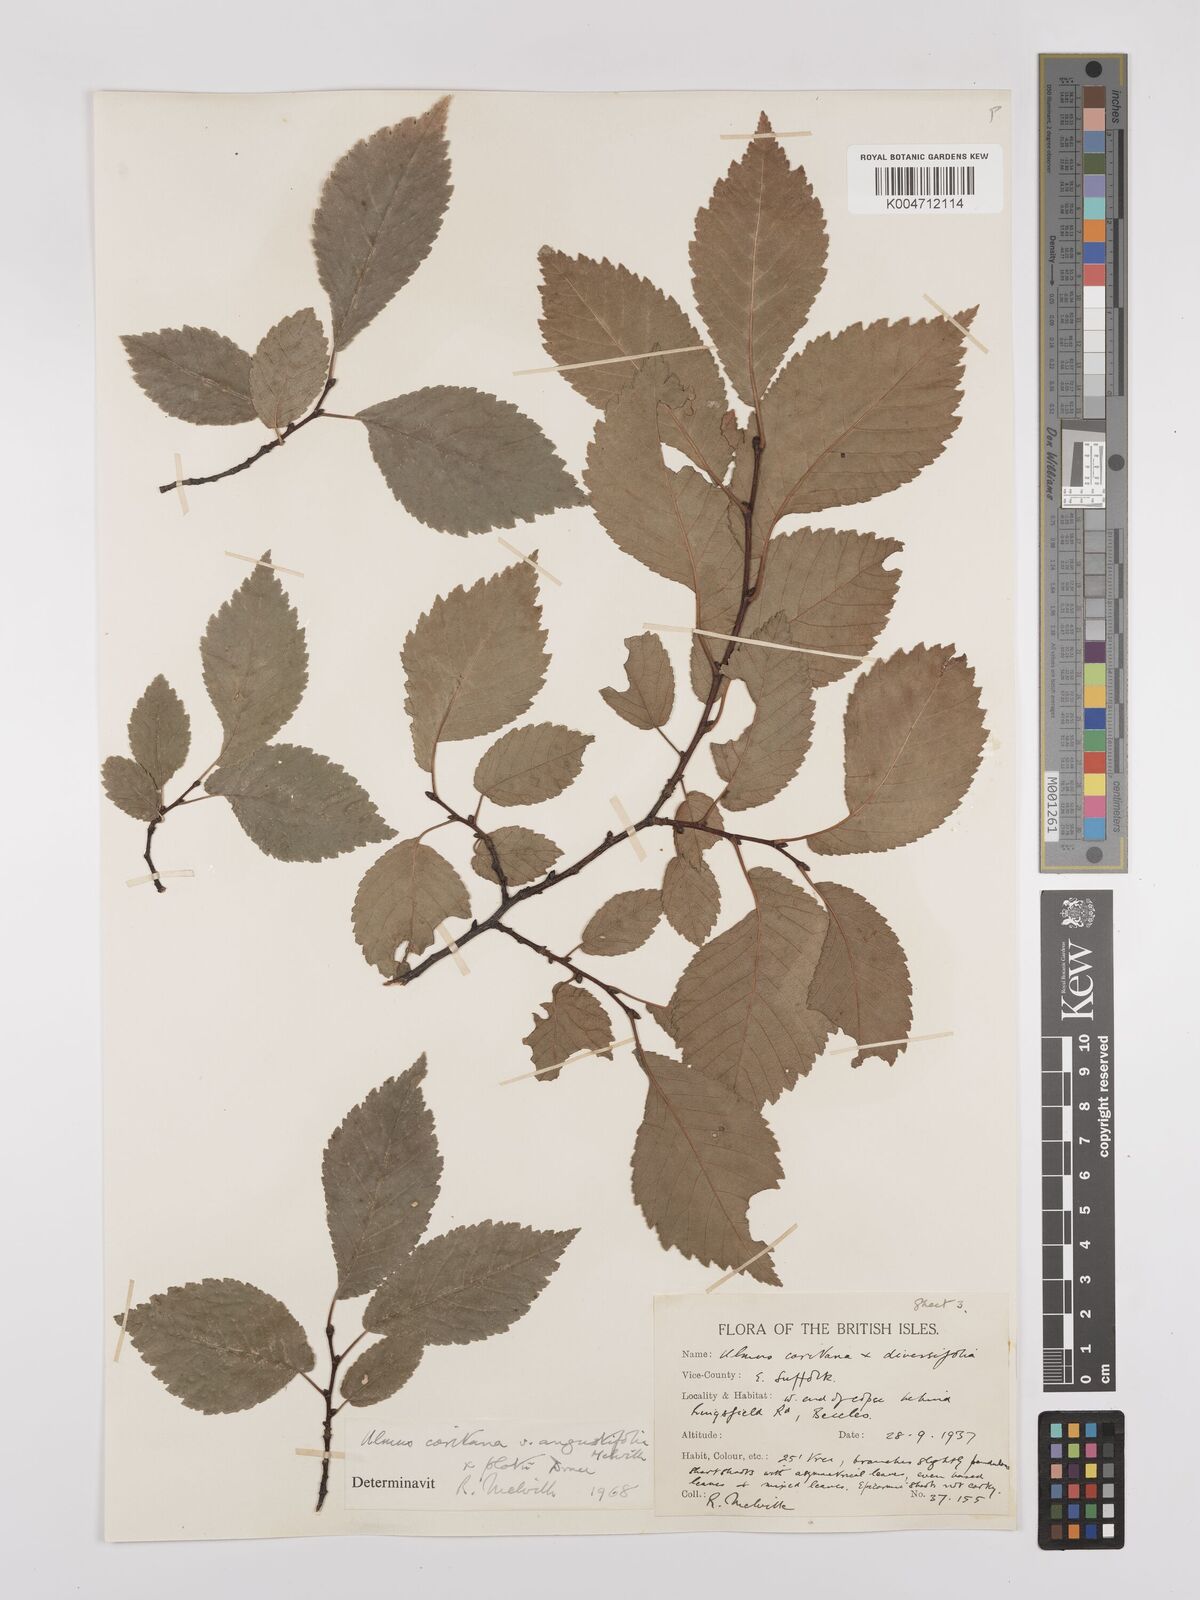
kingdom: Plantae
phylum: Tracheophyta
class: Magnoliopsida
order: Rosales
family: Ulmaceae
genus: Ulmus
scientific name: Ulmus minor
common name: Small-leaved elm
